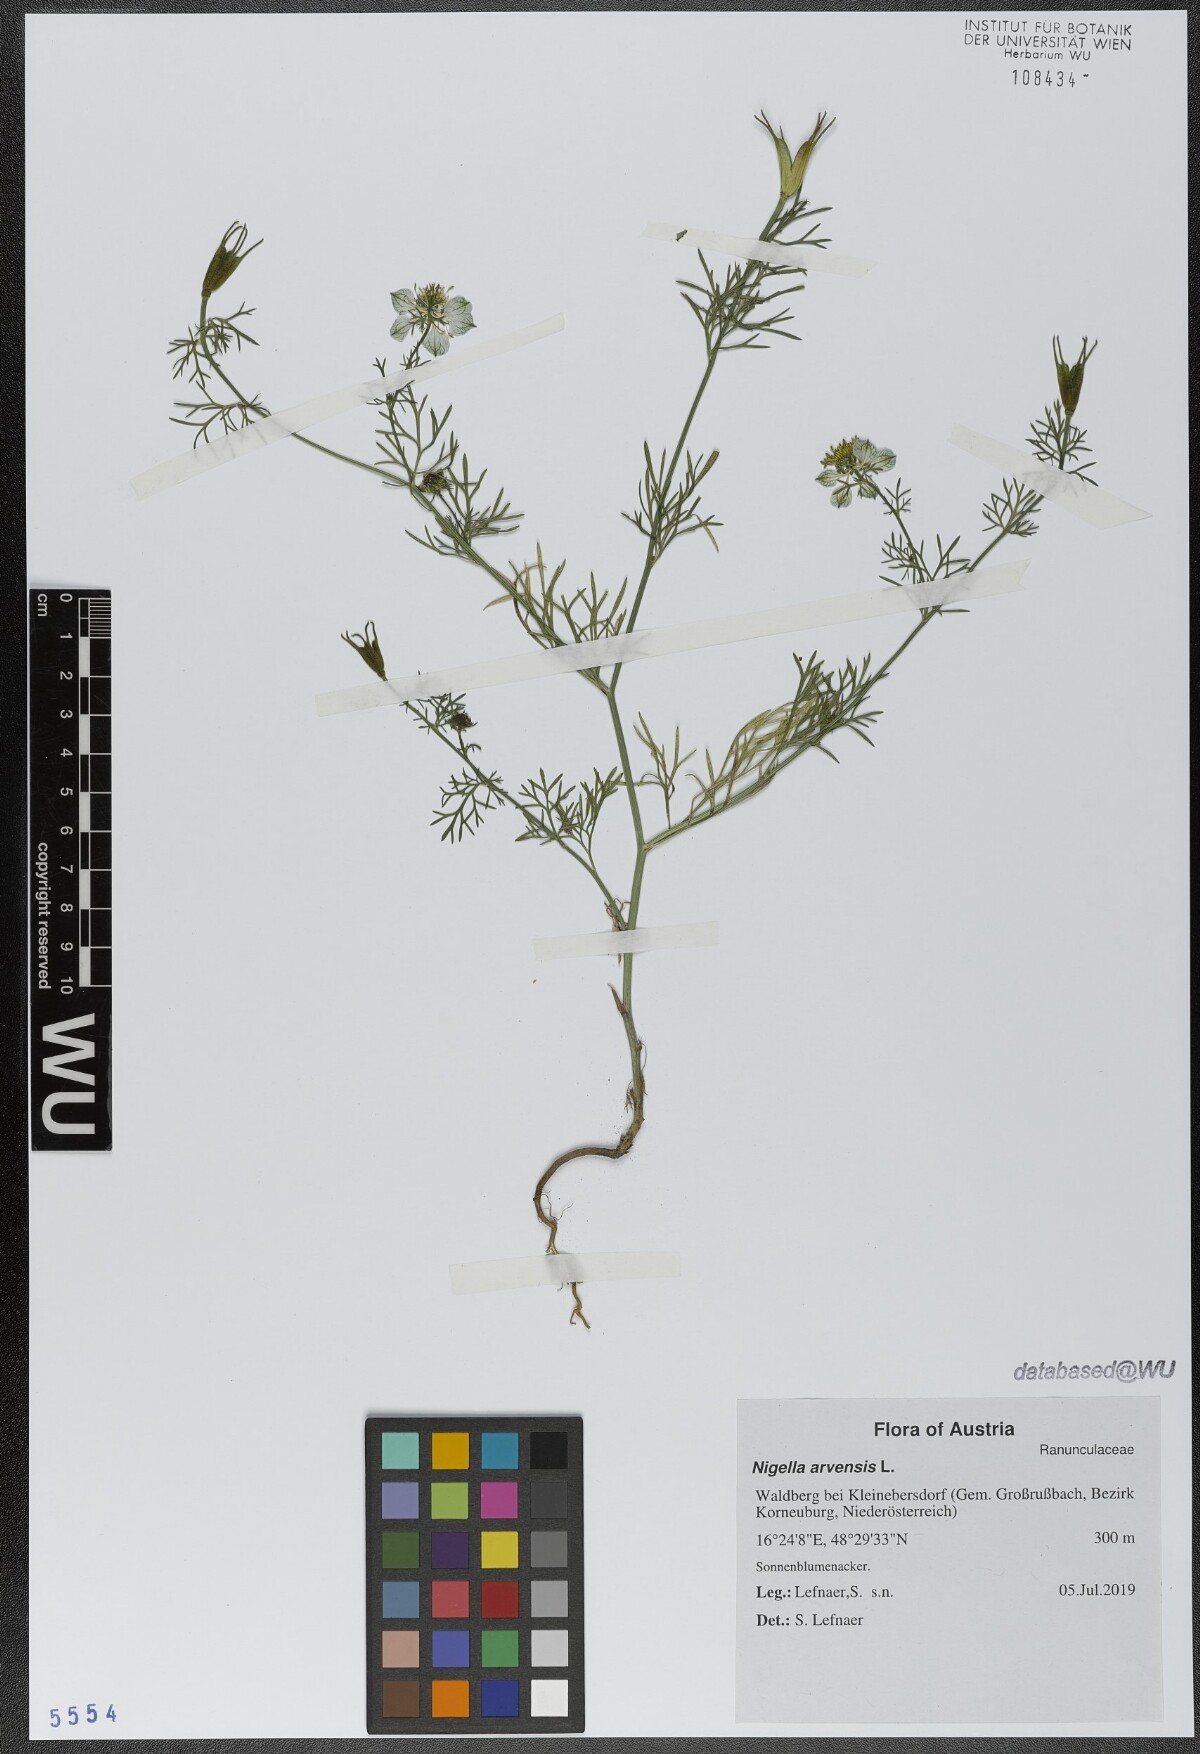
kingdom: Plantae
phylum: Tracheophyta
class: Magnoliopsida
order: Ranunculales
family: Ranunculaceae
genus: Nigella
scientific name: Nigella arvensis
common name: Wild fennel-flower
